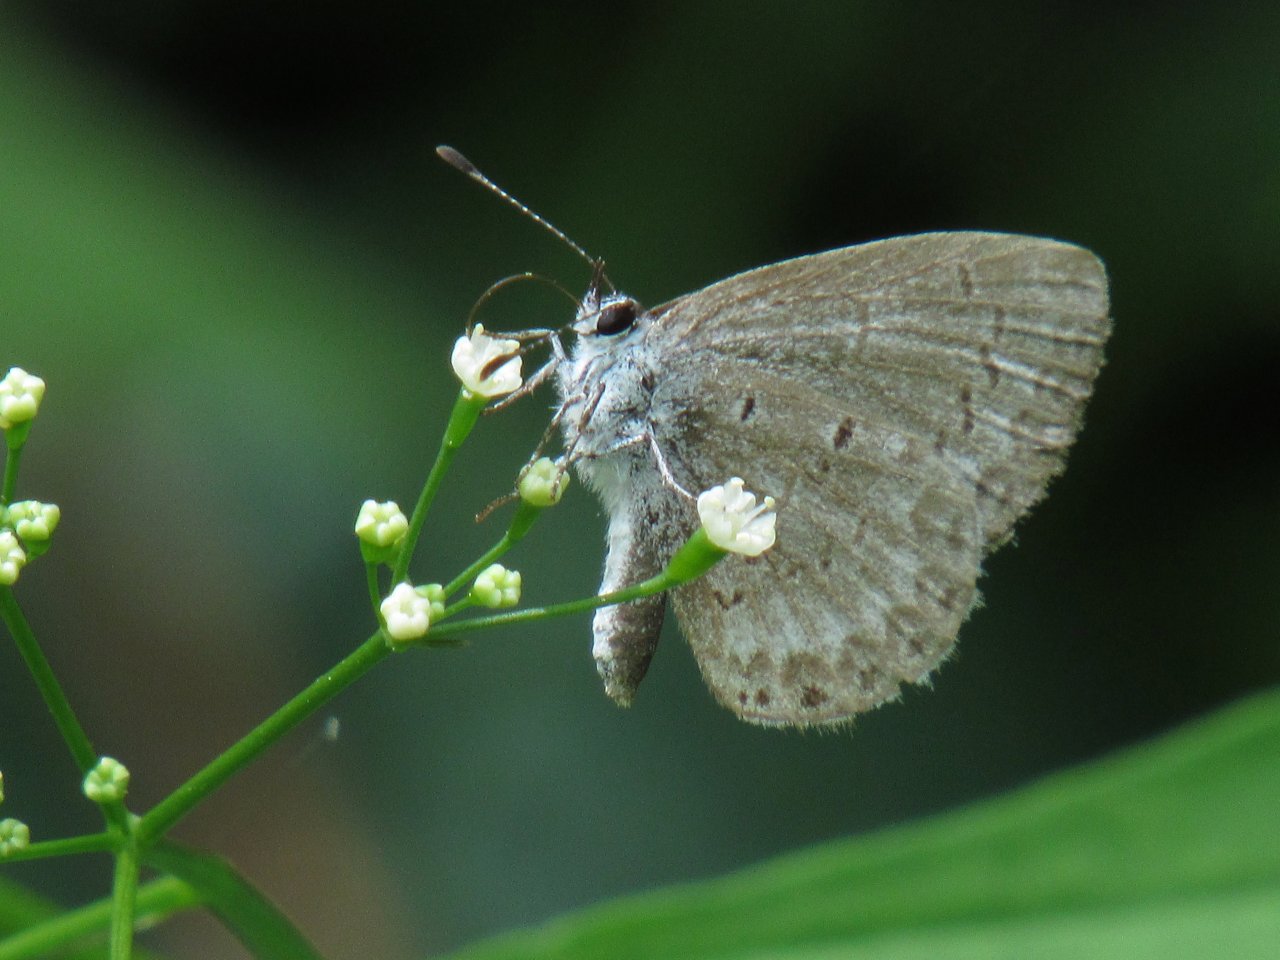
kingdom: Animalia
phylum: Arthropoda
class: Insecta
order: Lepidoptera
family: Lycaenidae
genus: Celastrina
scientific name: Celastrina
